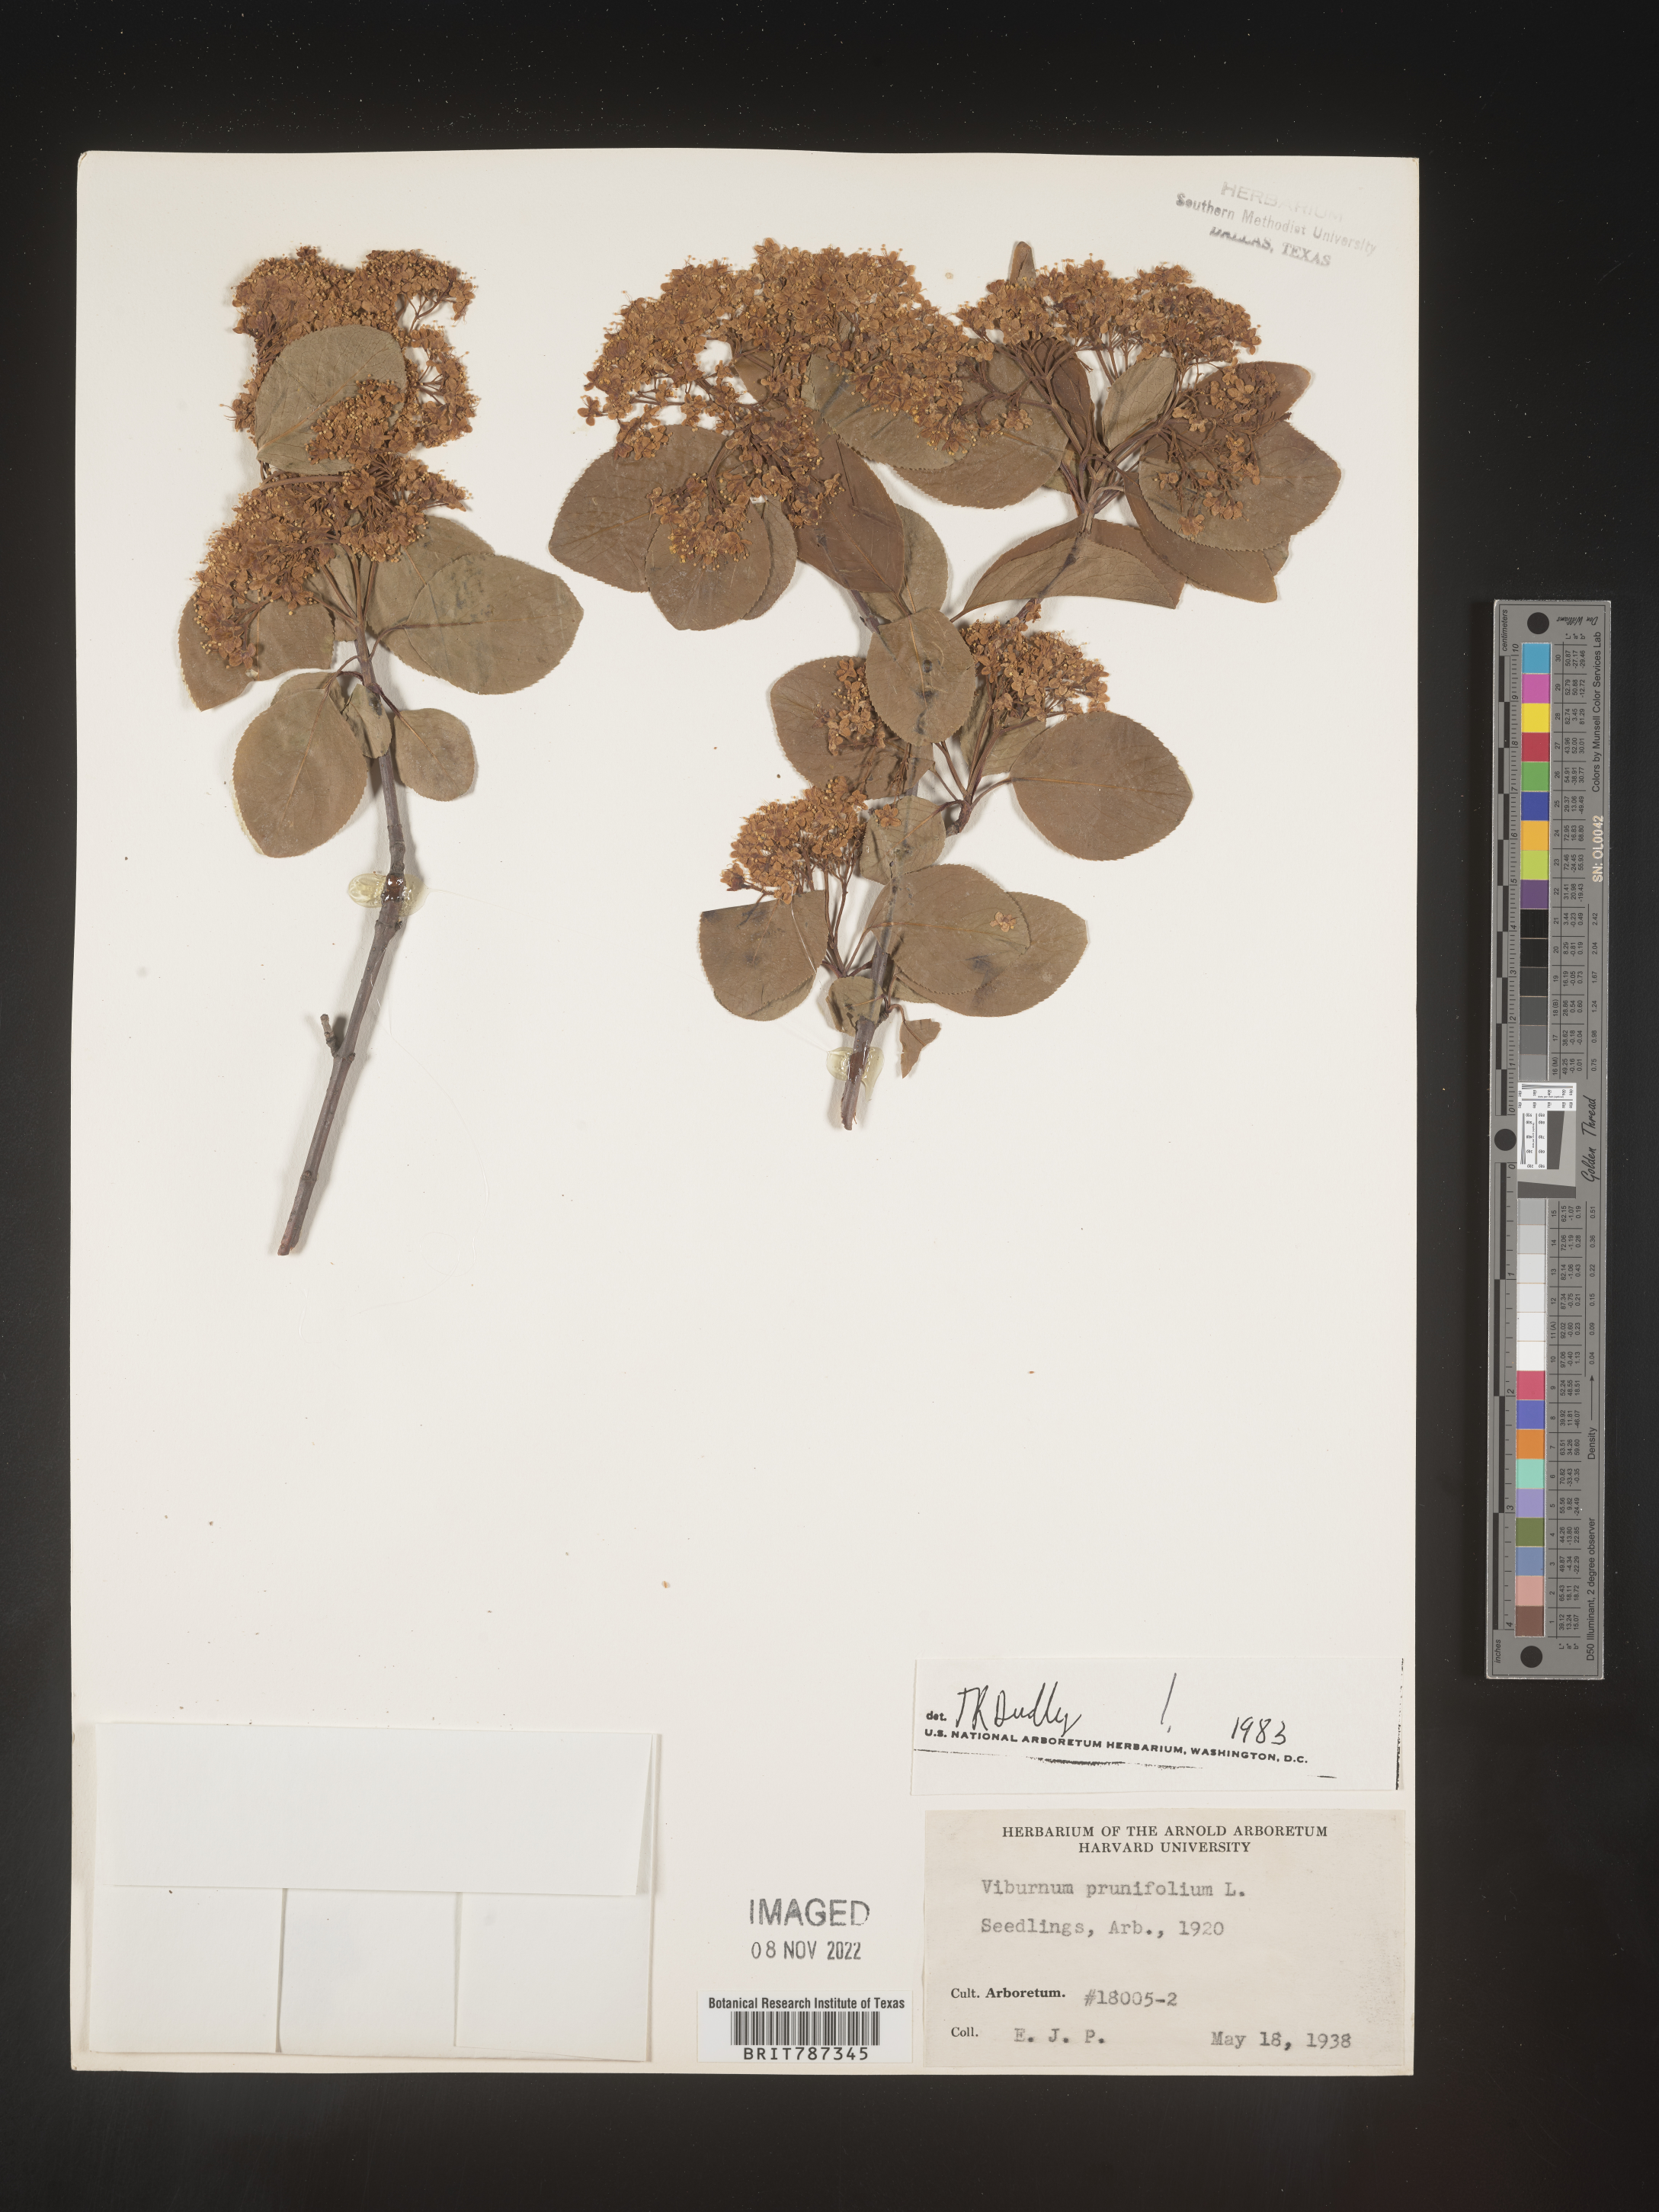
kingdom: Plantae
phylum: Tracheophyta
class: Magnoliopsida
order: Dipsacales
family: Viburnaceae
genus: Viburnum
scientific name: Viburnum
